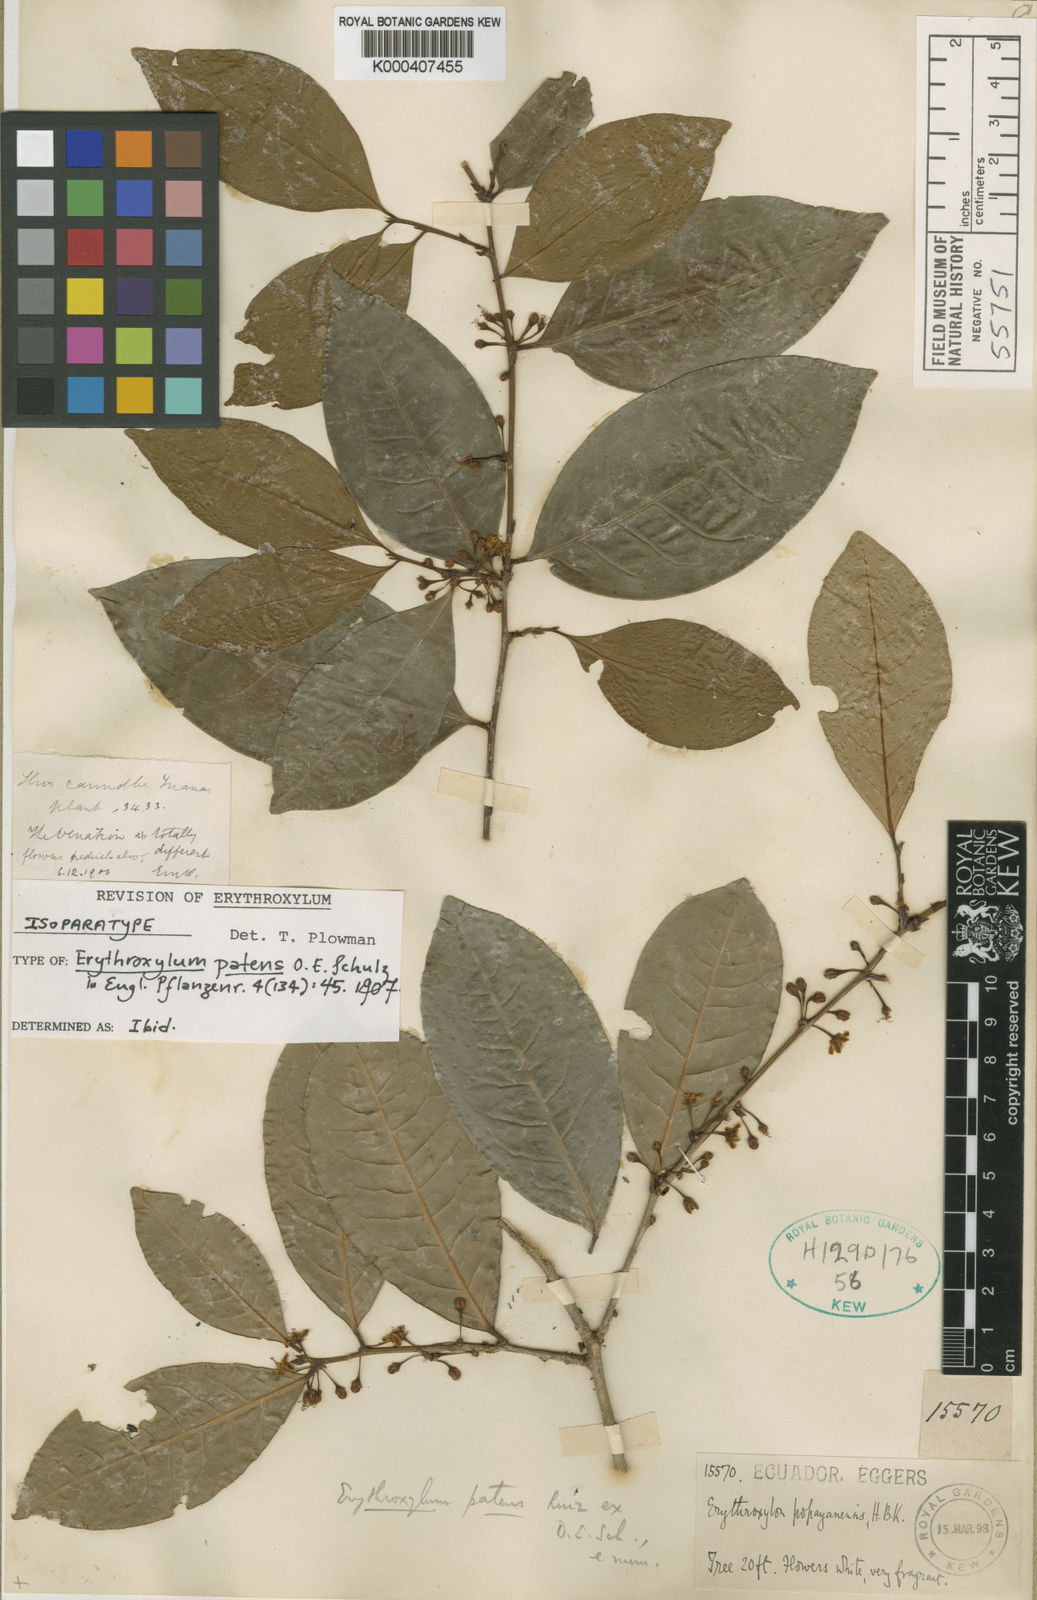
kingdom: Plantae
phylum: Tracheophyta
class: Magnoliopsida
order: Malpighiales
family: Erythroxylaceae
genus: Erythroxylum
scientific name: Erythroxylum acuminatum
